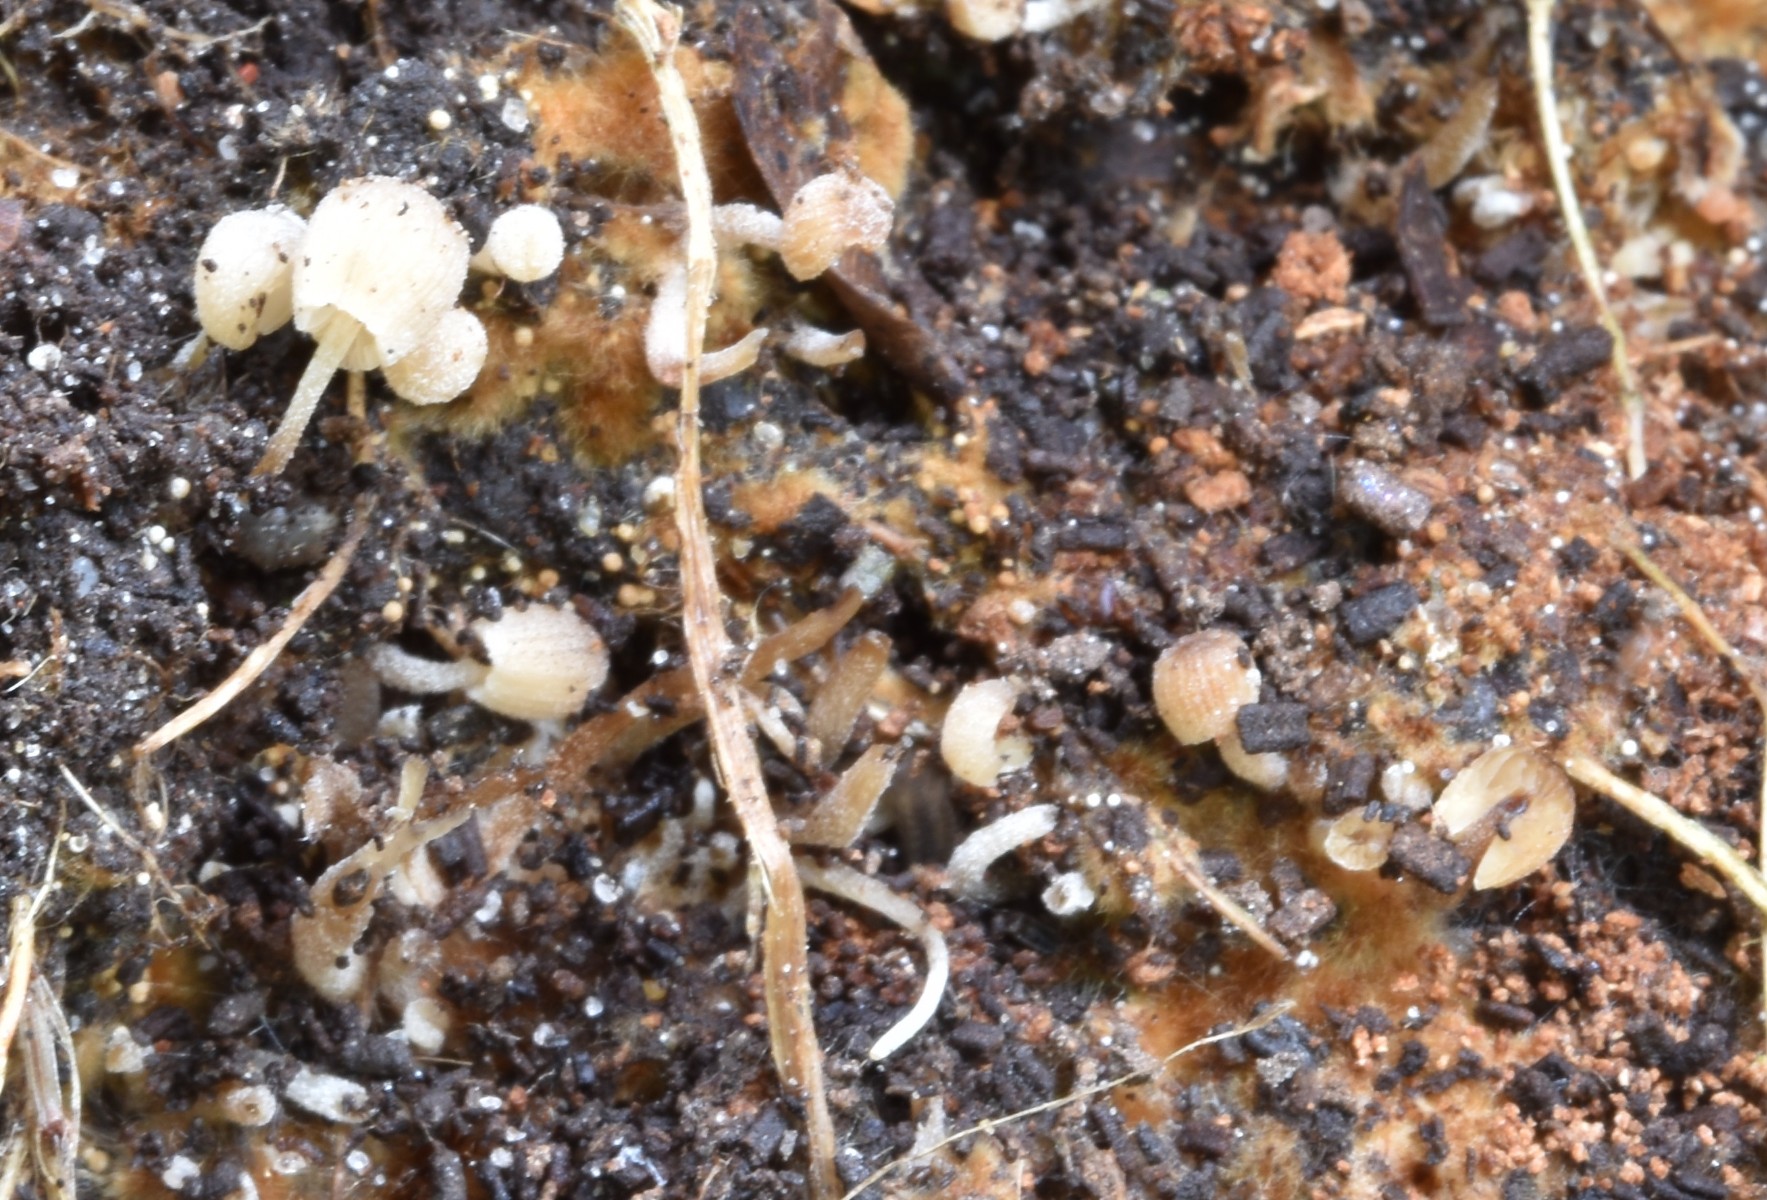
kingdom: Fungi
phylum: Basidiomycota
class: Agaricomycetes
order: Agaricales
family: Psathyrellaceae
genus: Coprinellus
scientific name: Coprinellus
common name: blækhat
